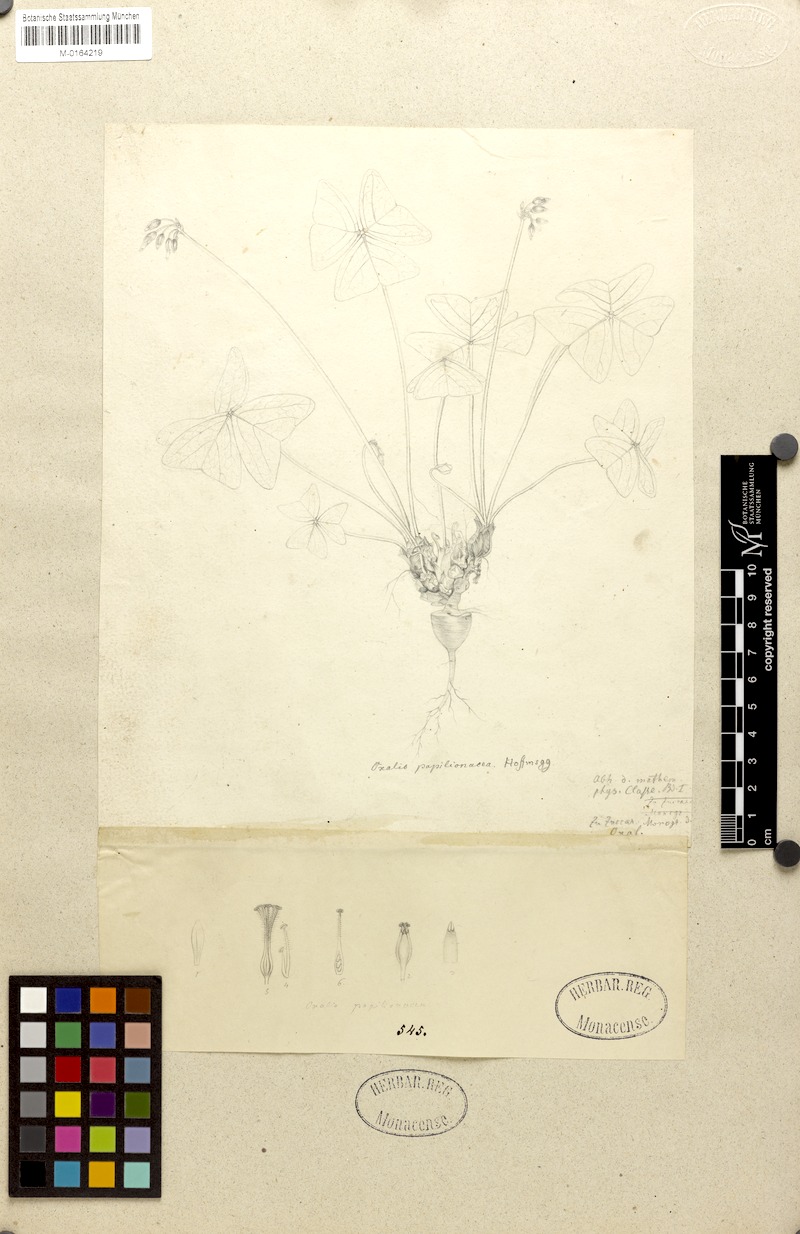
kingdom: Plantae
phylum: Tracheophyta
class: Magnoliopsida
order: Oxalidales
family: Oxalidaceae
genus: Oxalis
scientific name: Oxalis triangularis
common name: Wood sorrel
